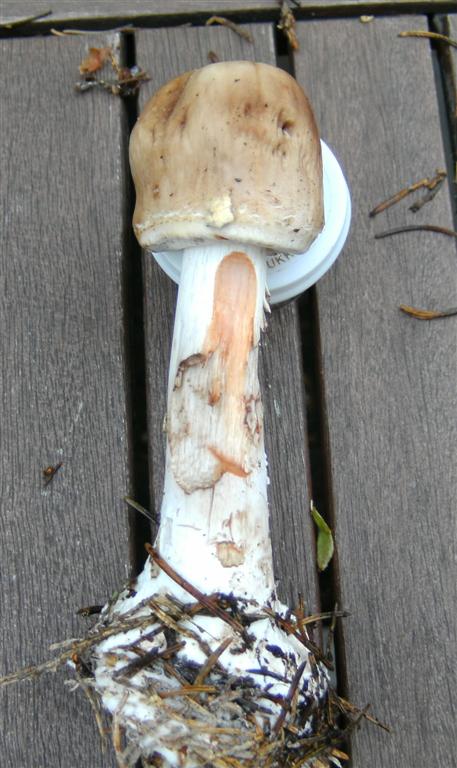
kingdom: Fungi
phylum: Basidiomycota
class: Agaricomycetes
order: Agaricales
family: Agaricaceae
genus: Chlorophyllum
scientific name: Chlorophyllum olivieri
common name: almindelig rabarberhat
